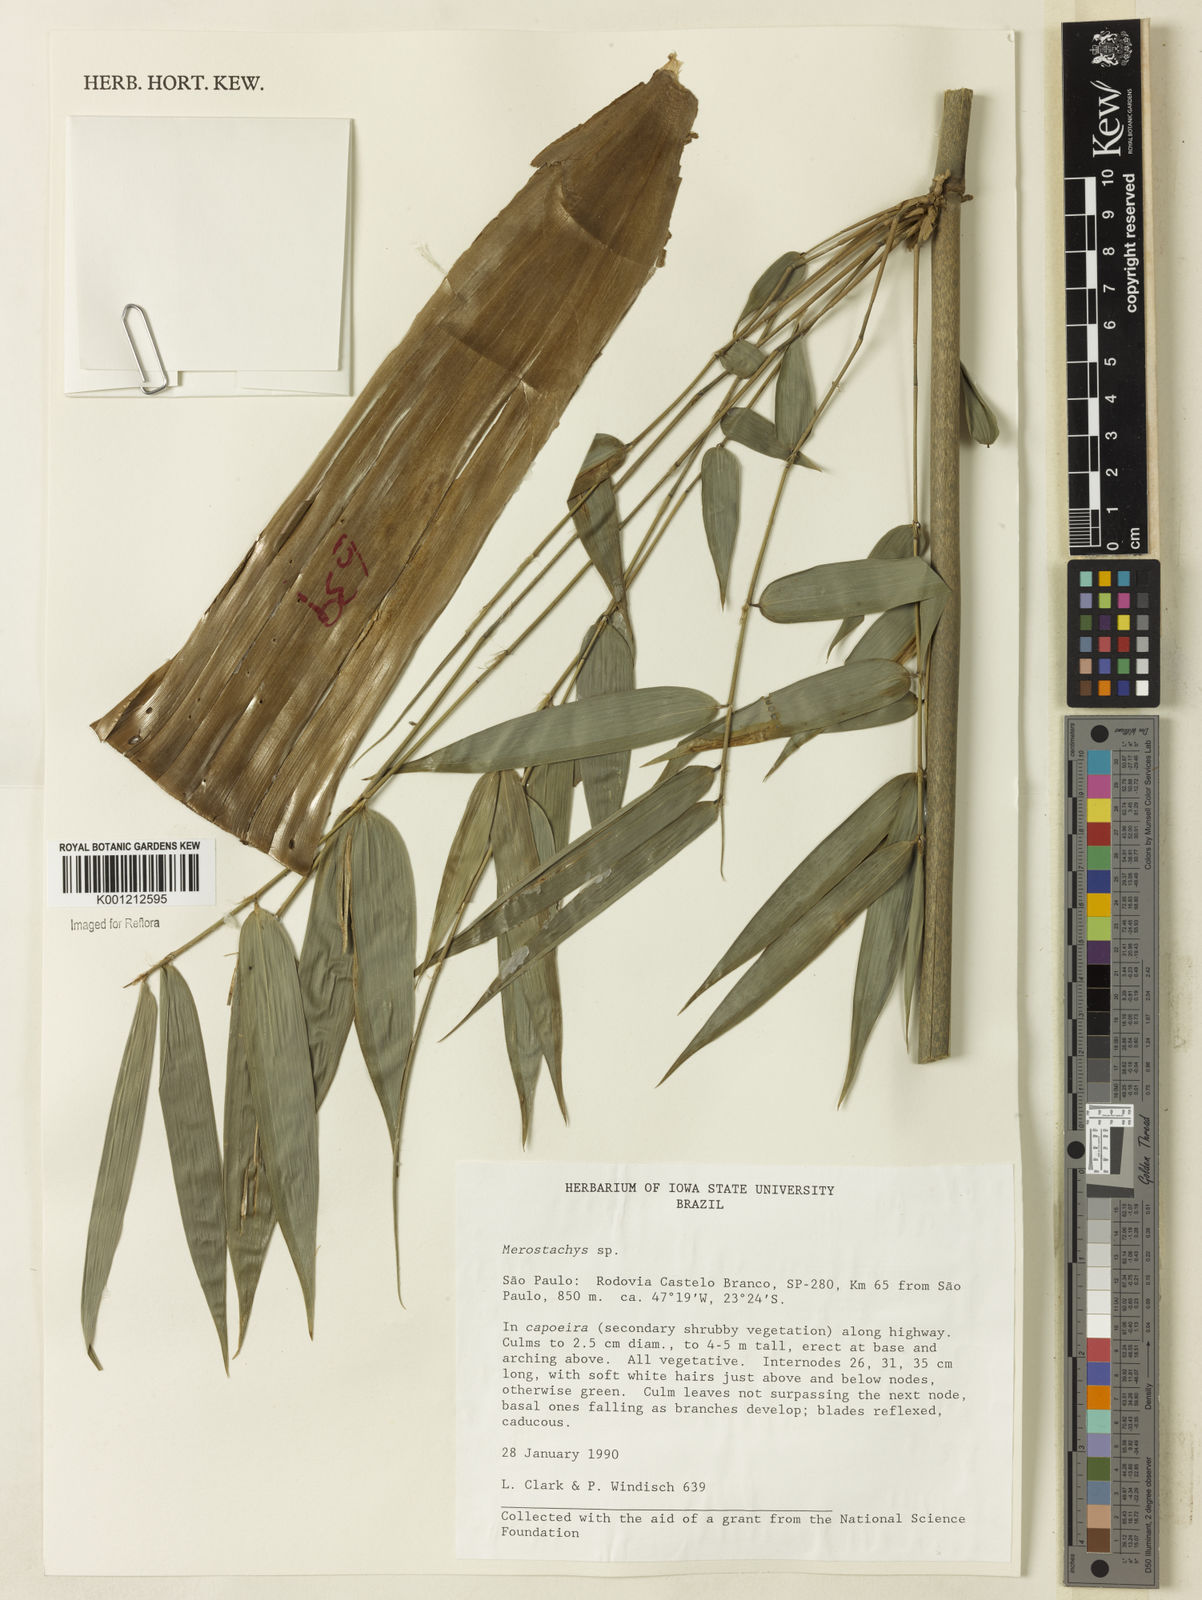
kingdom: Plantae
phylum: Tracheophyta
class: Liliopsida
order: Poales
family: Poaceae
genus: Merostachys
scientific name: Merostachys
